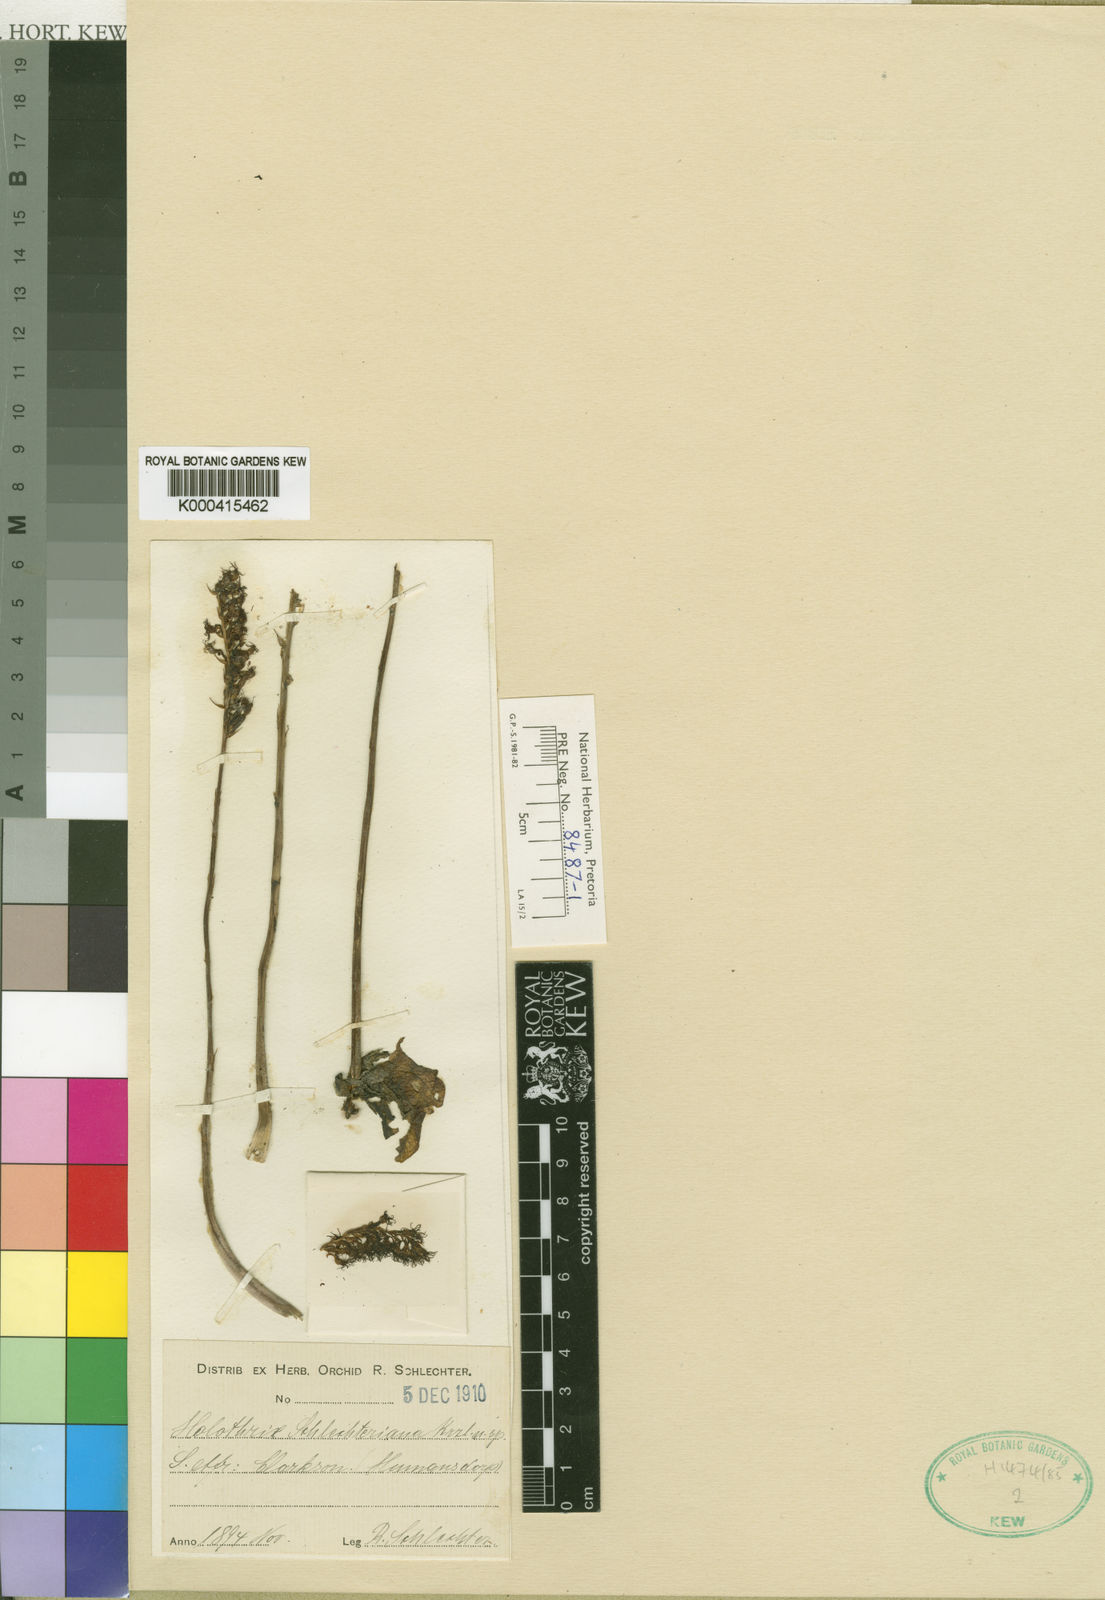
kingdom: Plantae
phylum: Tracheophyta
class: Liliopsida
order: Asparagales
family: Orchidaceae
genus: Holothrix
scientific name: Holothrix
